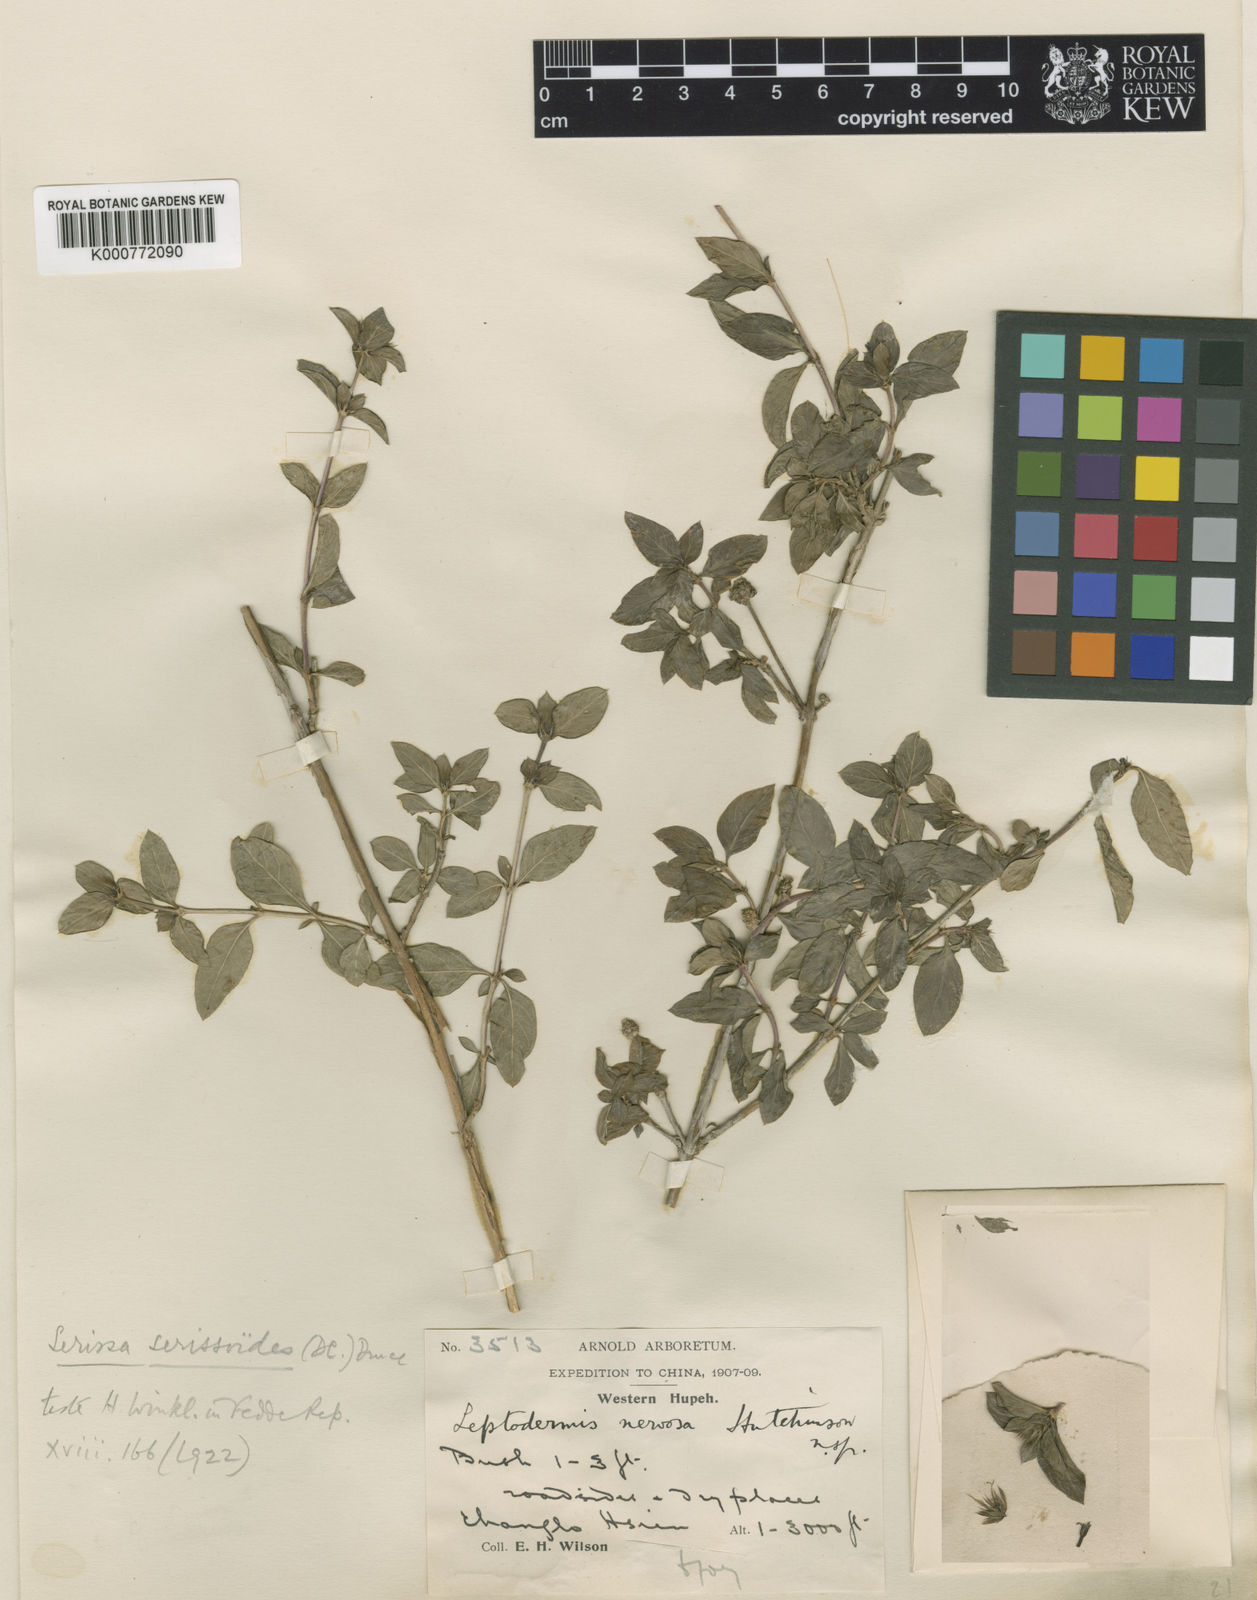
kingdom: Plantae
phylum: Tracheophyta
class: Magnoliopsida
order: Gentianales
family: Rubiaceae
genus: Buchozia
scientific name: Buchozia japonica
